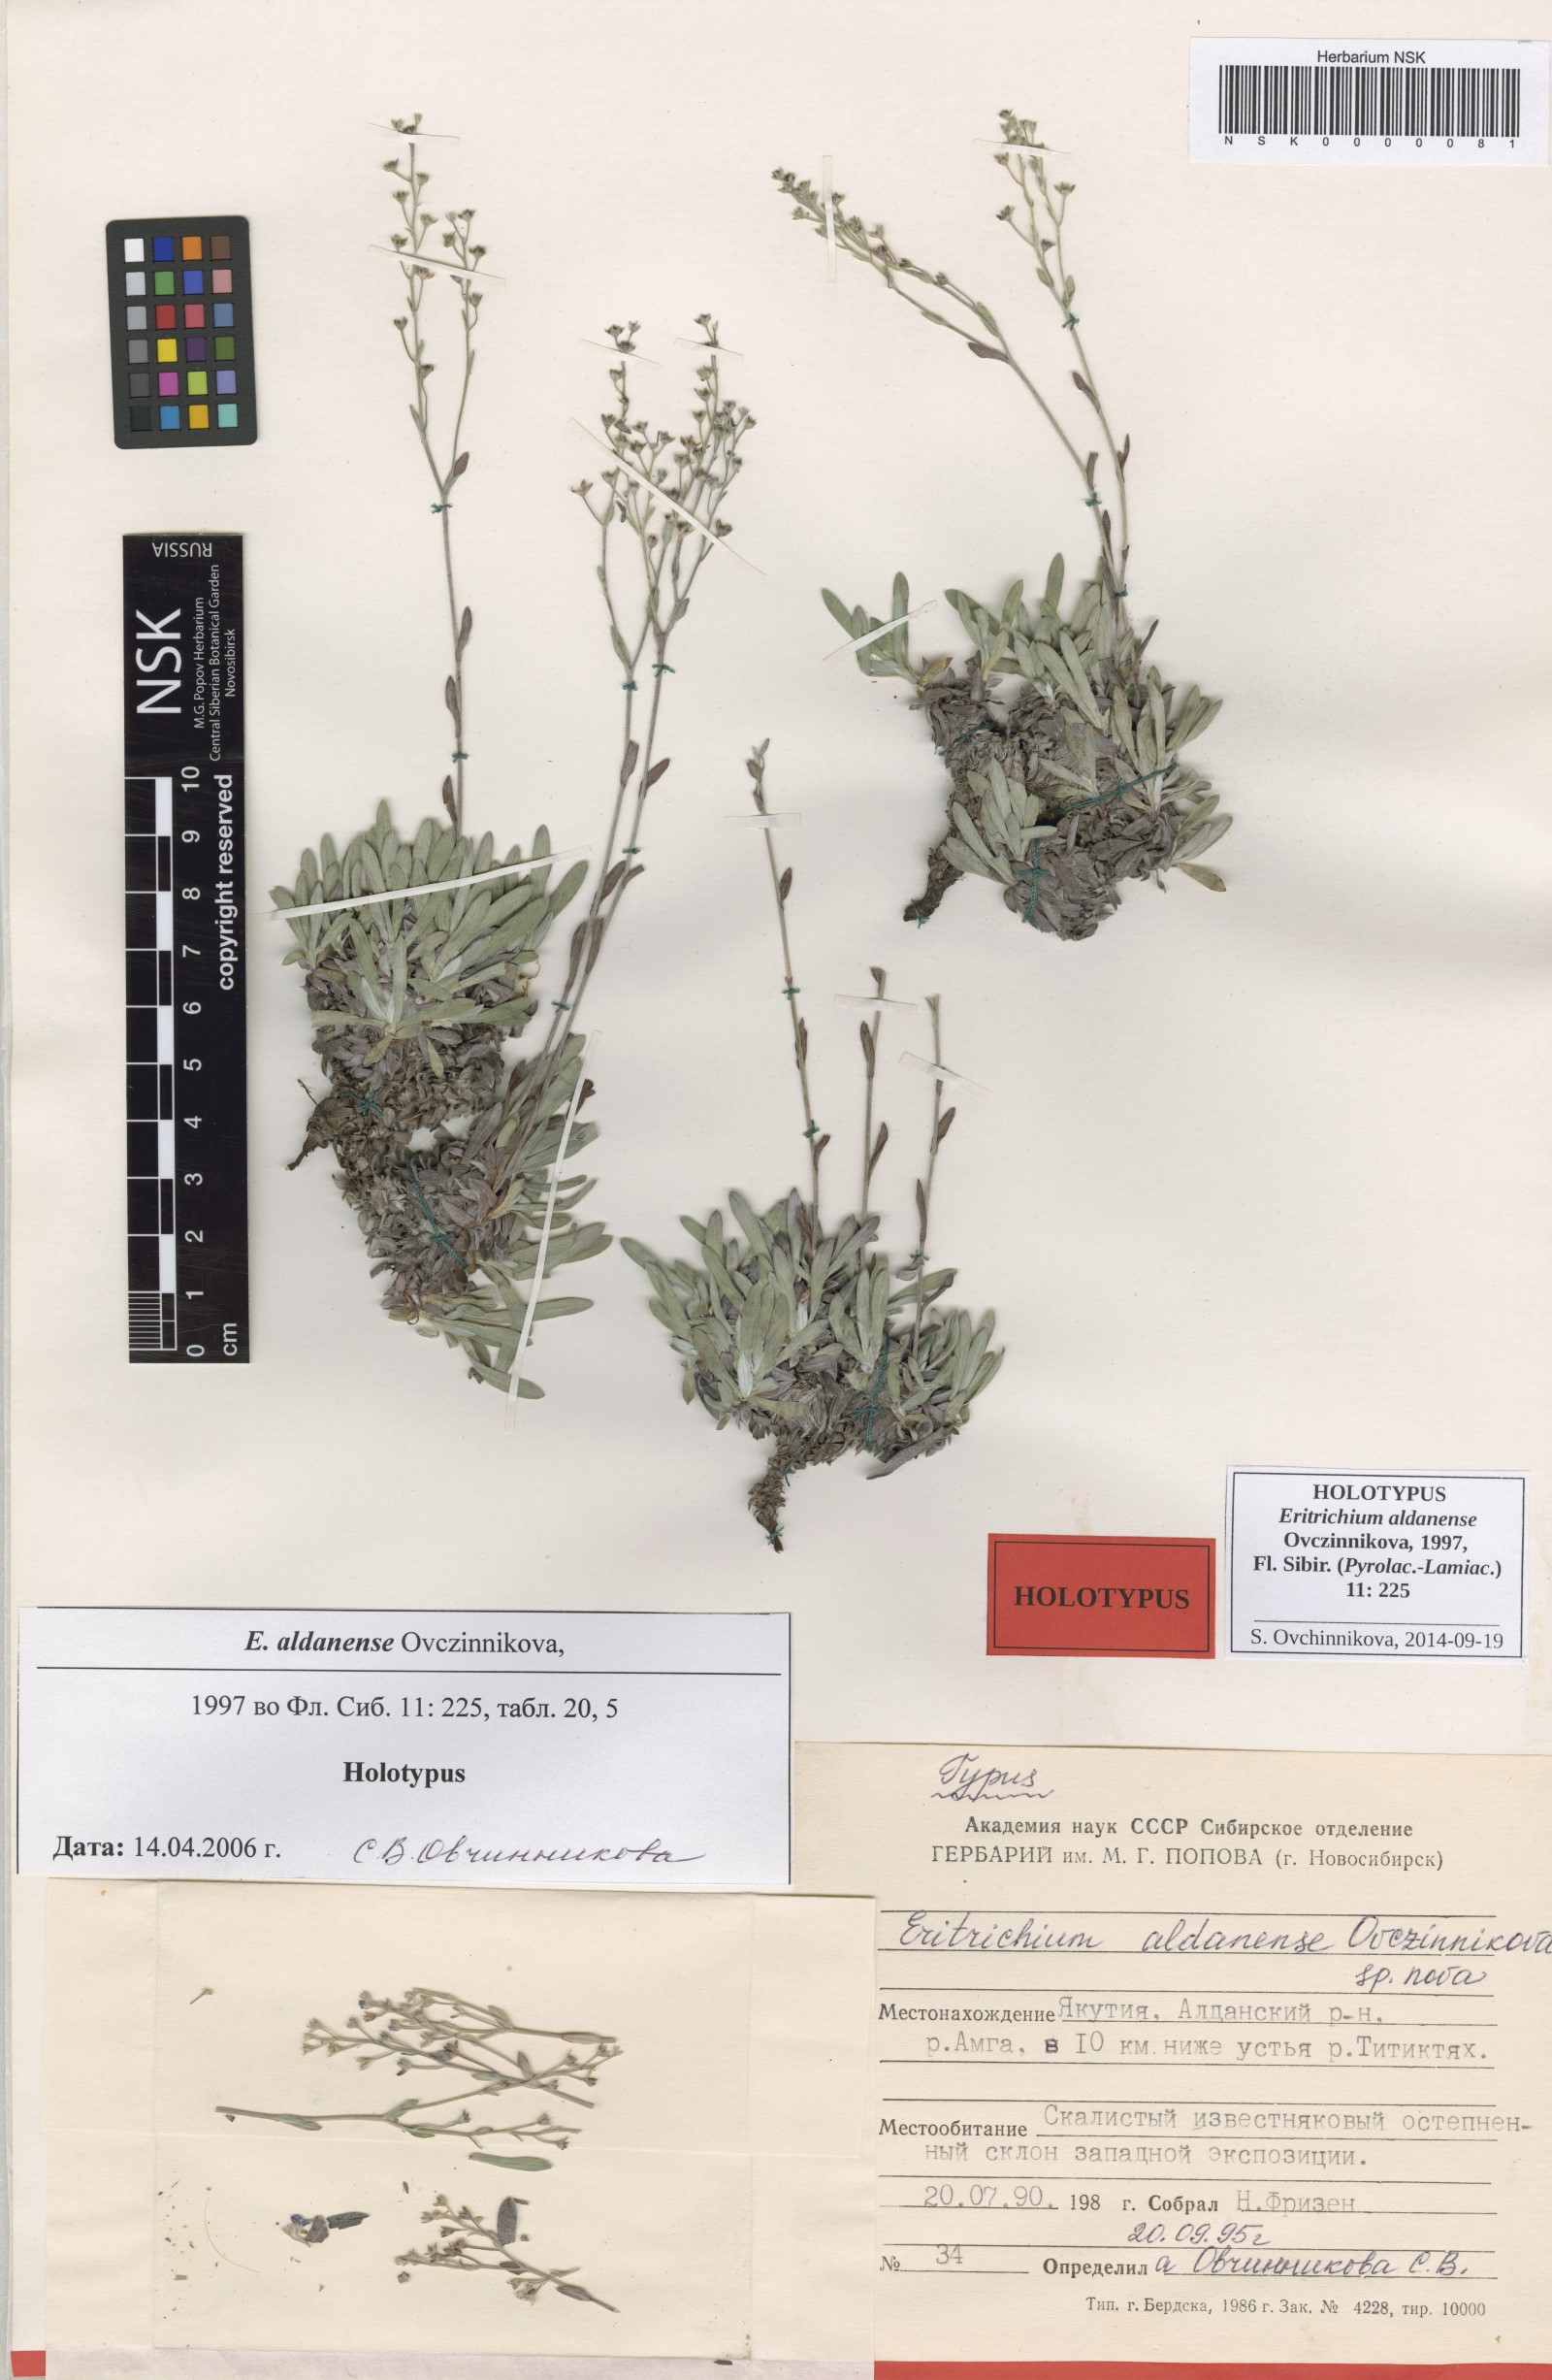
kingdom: Plantae
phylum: Tracheophyta
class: Magnoliopsida
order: Boraginales
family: Boraginaceae
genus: Eritrichium
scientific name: Eritrichium aldanense
